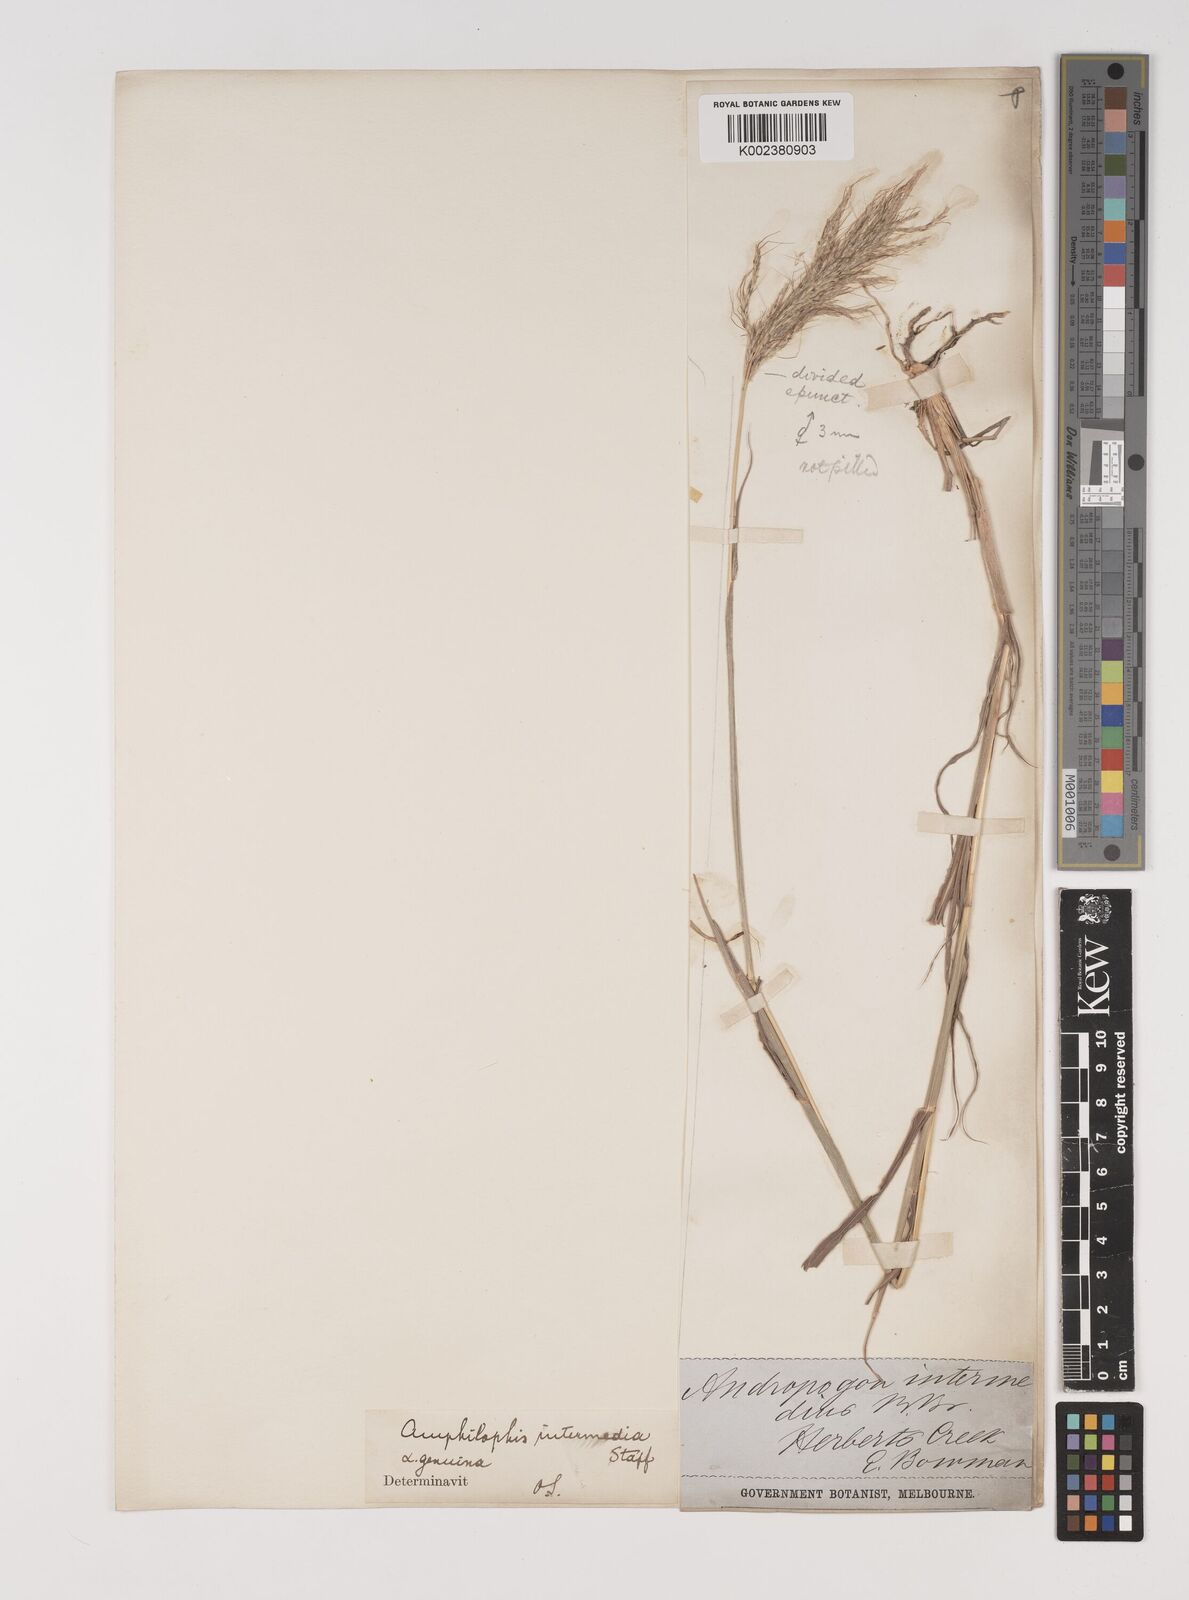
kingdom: Plantae
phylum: Tracheophyta
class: Liliopsida
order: Poales
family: Poaceae
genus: Bothriochloa
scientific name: Bothriochloa bladhii
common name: Caucasian bluestem
